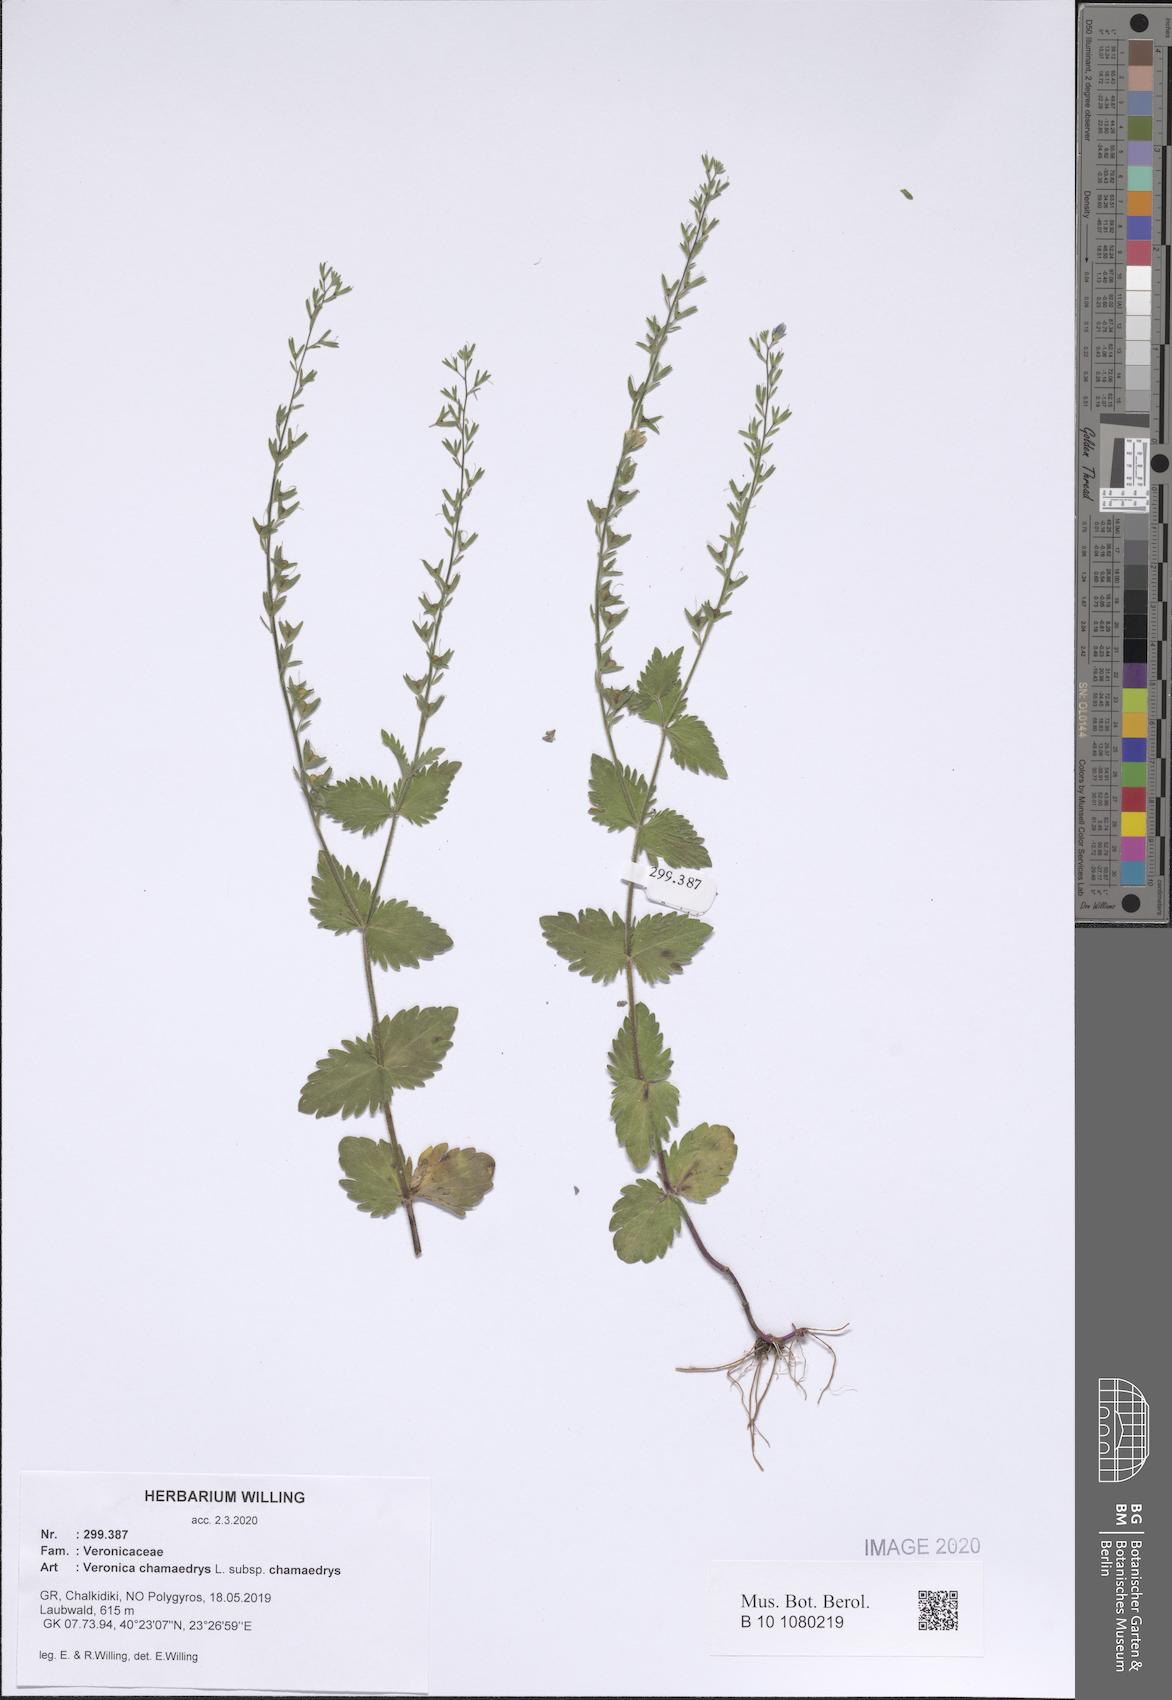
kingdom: Plantae
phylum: Tracheophyta
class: Magnoliopsida
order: Lamiales
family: Plantaginaceae
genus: Veronica
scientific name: Veronica chamaedrys
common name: Germander speedwell
